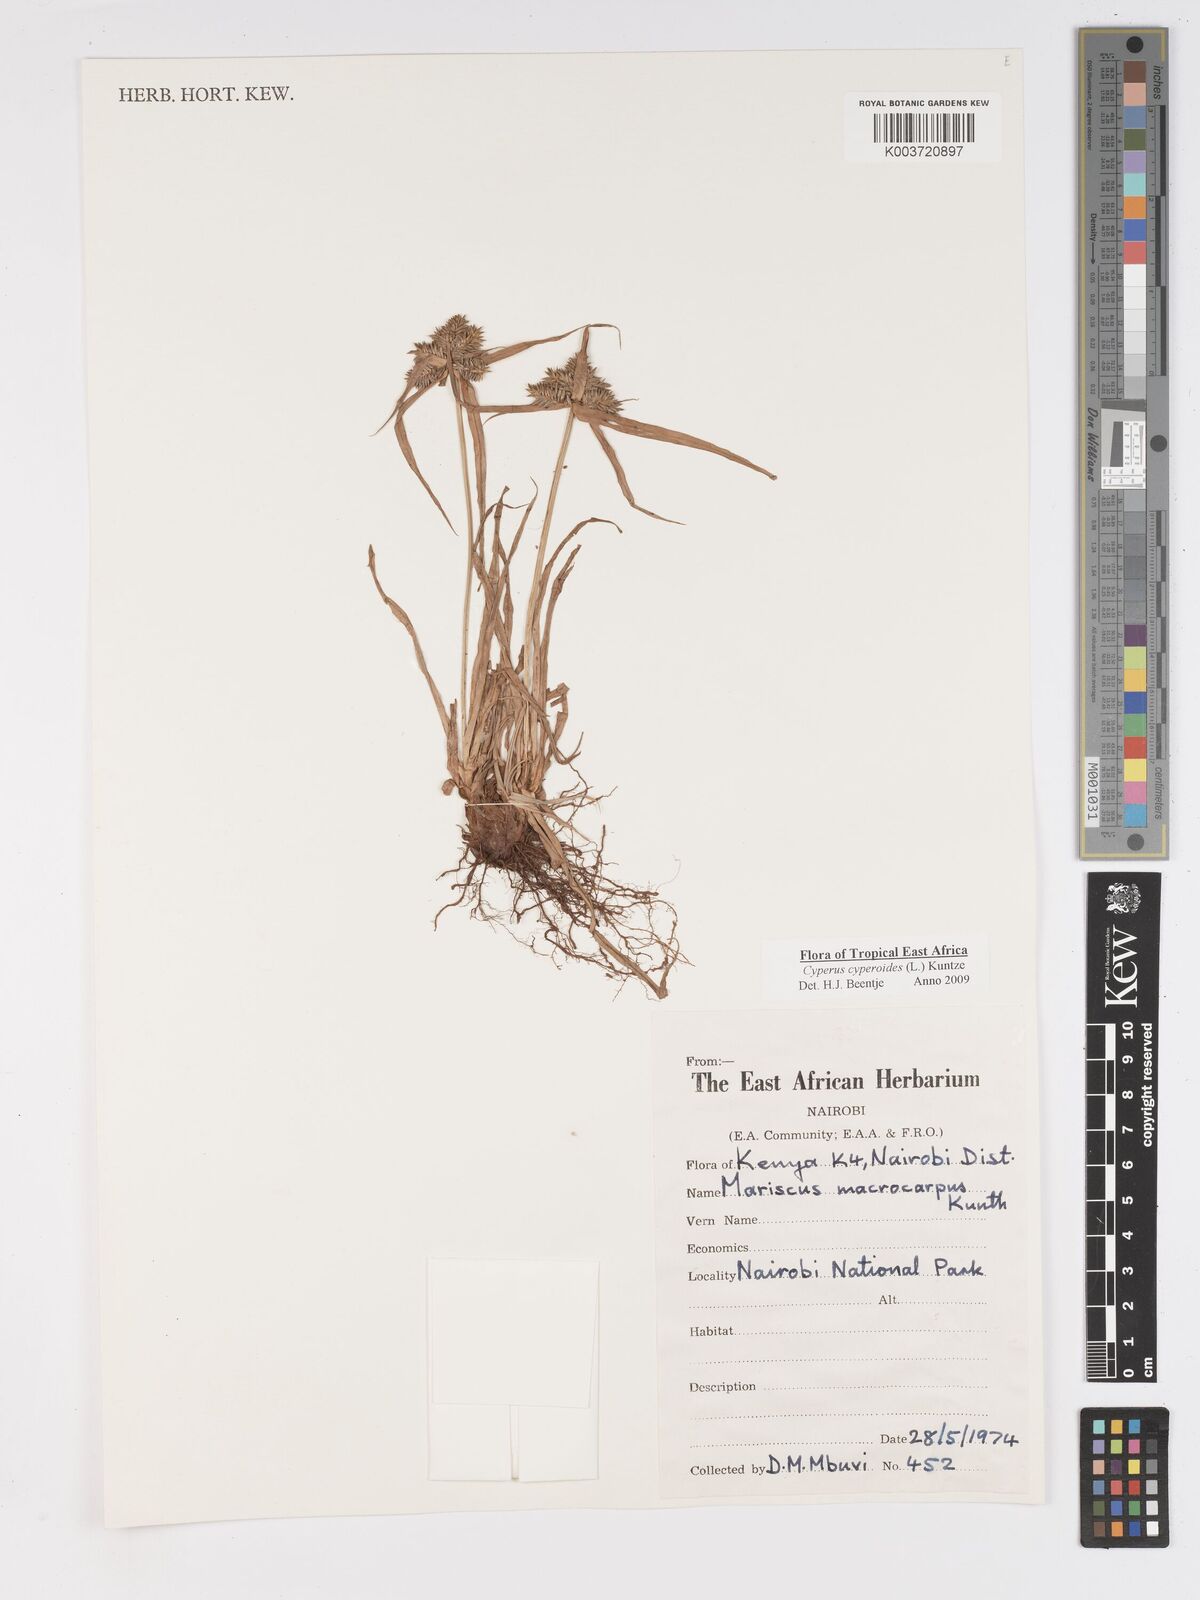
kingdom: Plantae
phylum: Tracheophyta
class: Liliopsida
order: Poales
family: Cyperaceae
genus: Cyperus
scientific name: Cyperus macrocarpus
